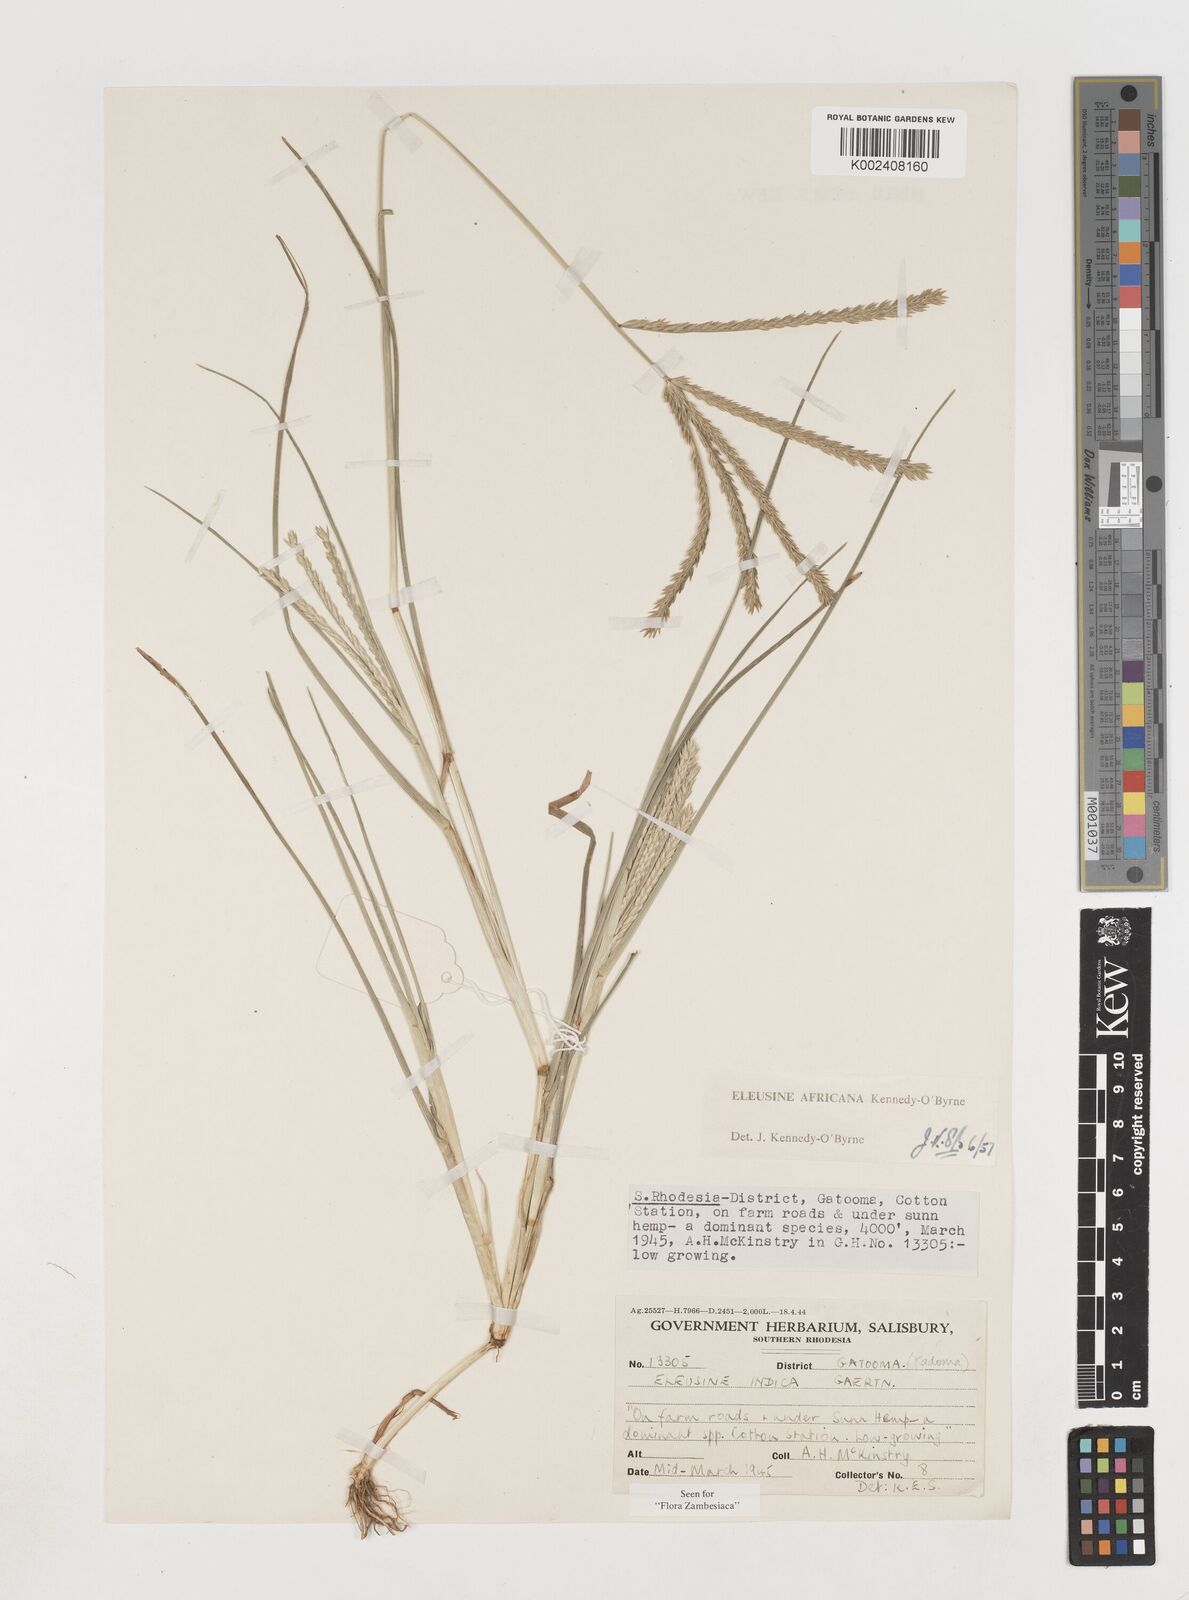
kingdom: Plantae
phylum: Tracheophyta
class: Liliopsida
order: Poales
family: Poaceae
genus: Eleusine
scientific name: Eleusine africana
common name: Wild african finger millet
